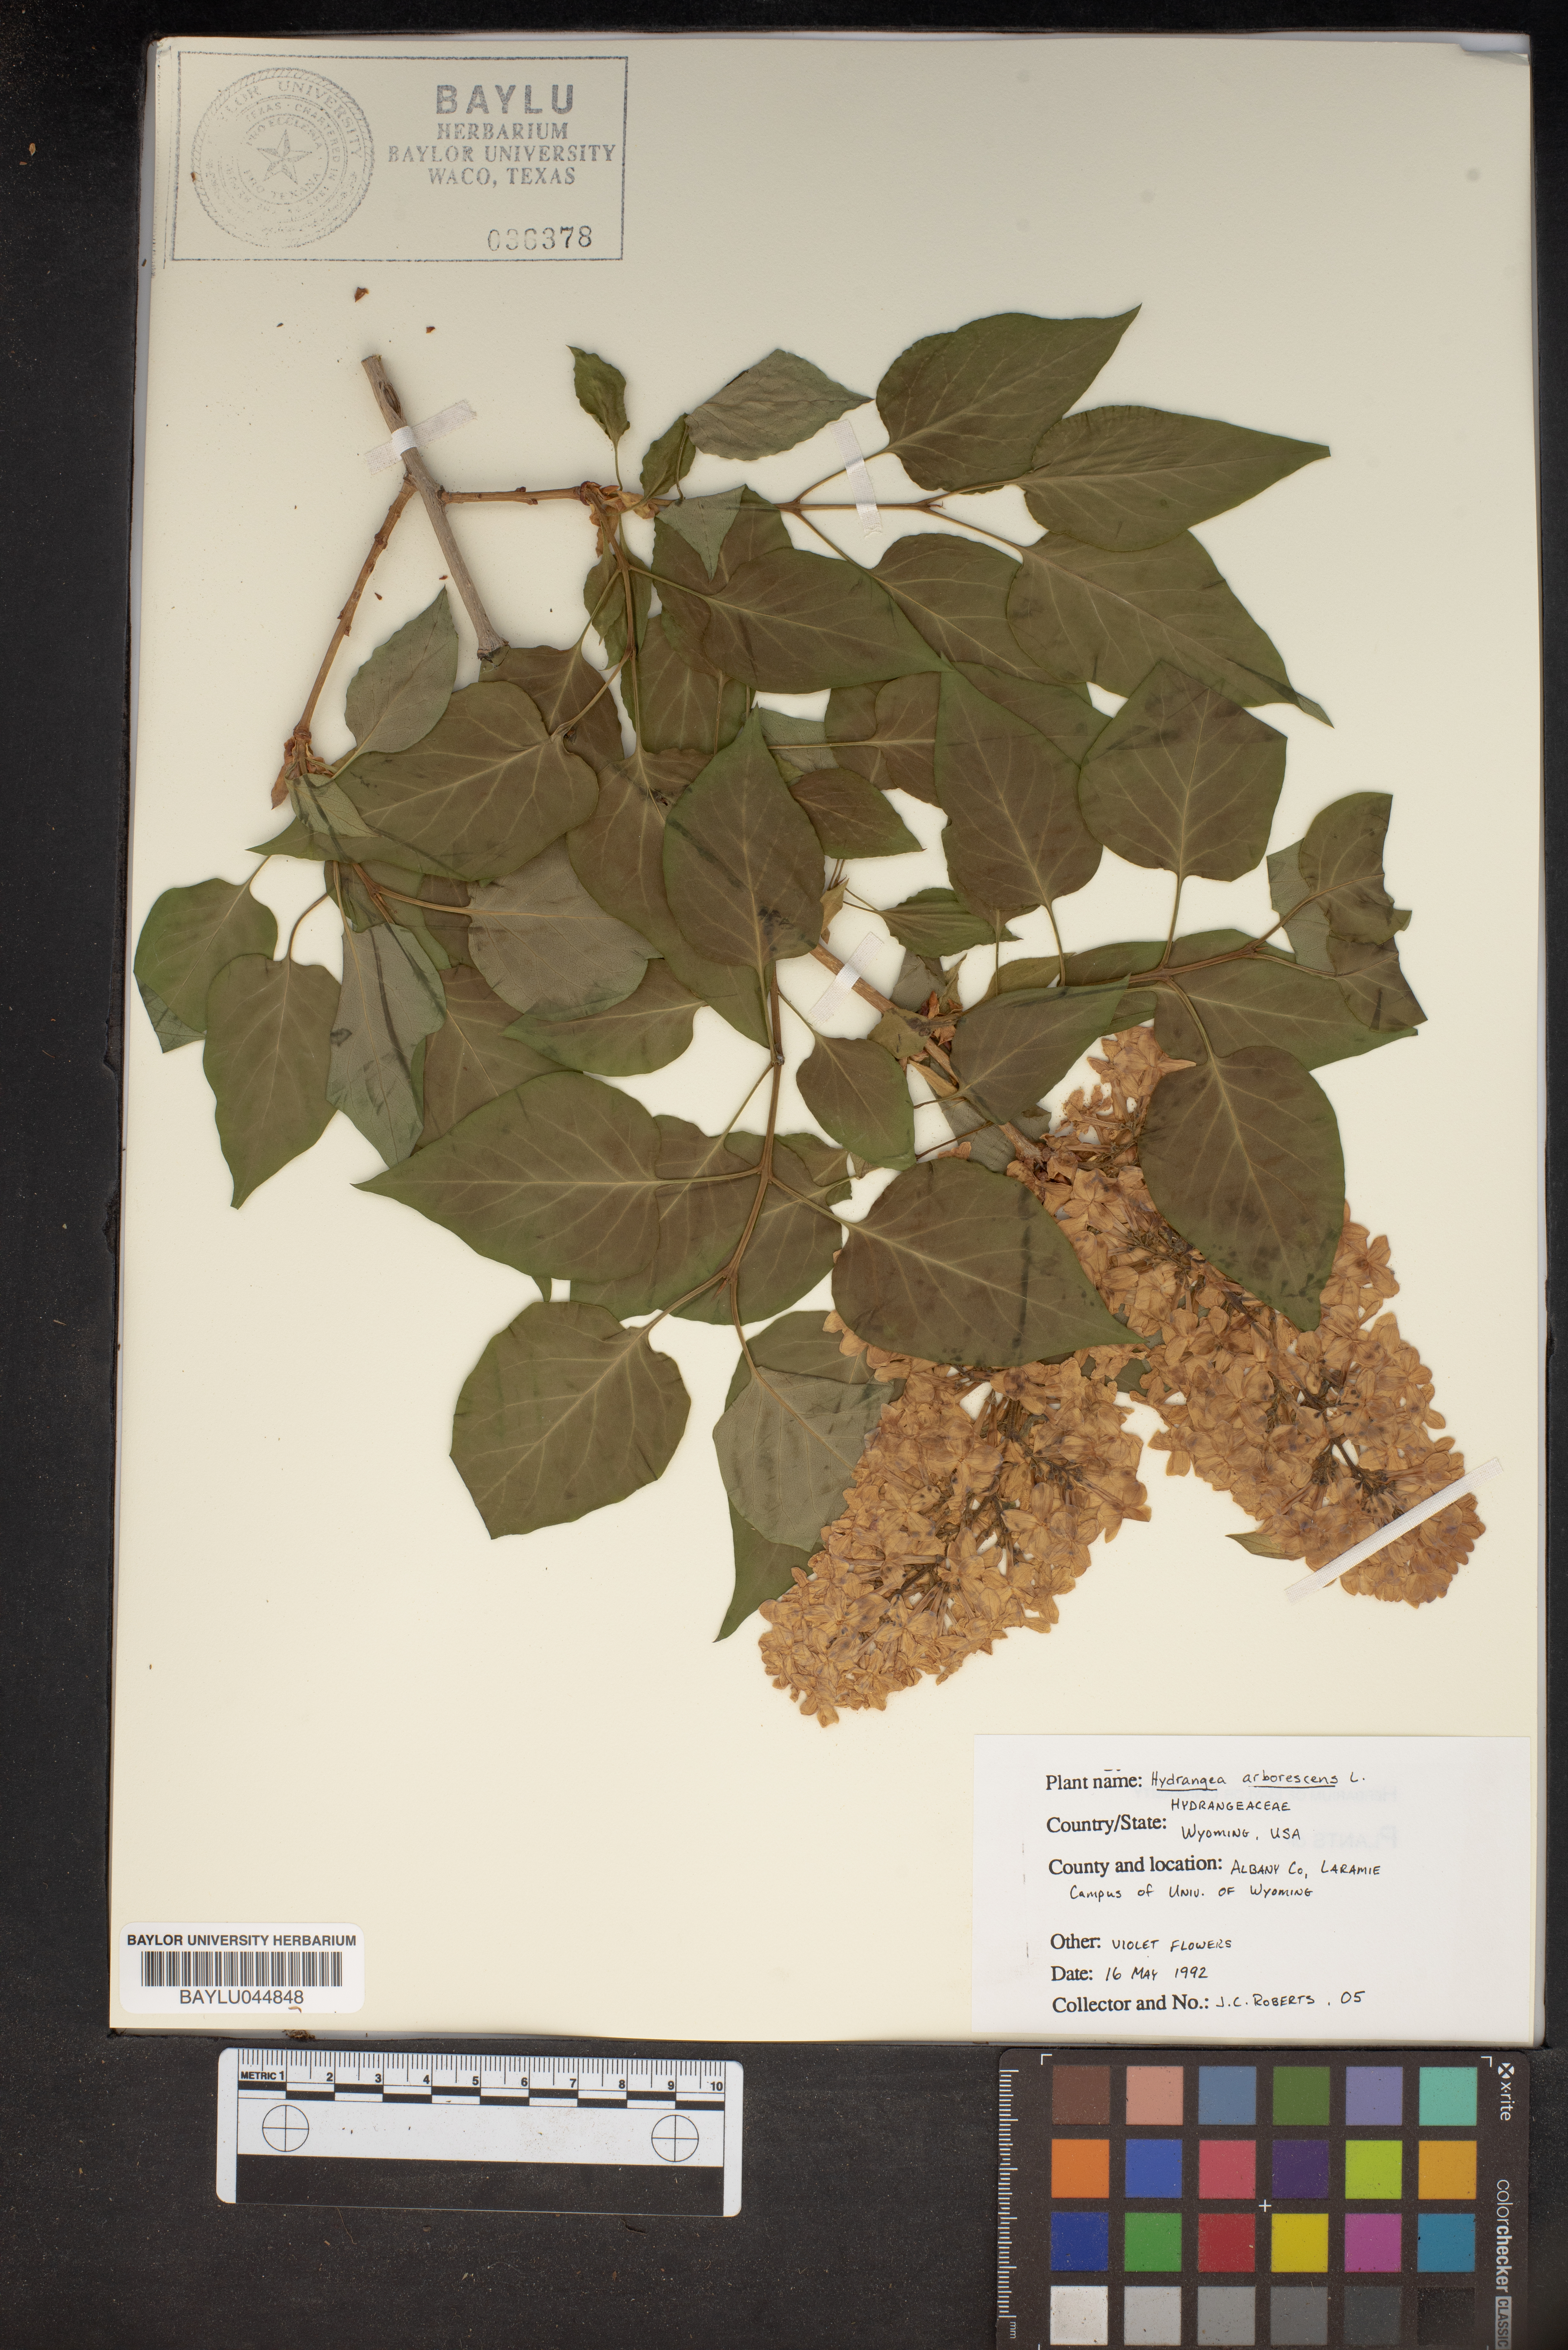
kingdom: Plantae
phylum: Tracheophyta
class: Magnoliopsida
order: Cornales
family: Hydrangeaceae
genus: Hydrangea
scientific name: Hydrangea arborescens
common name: Sevenbark
